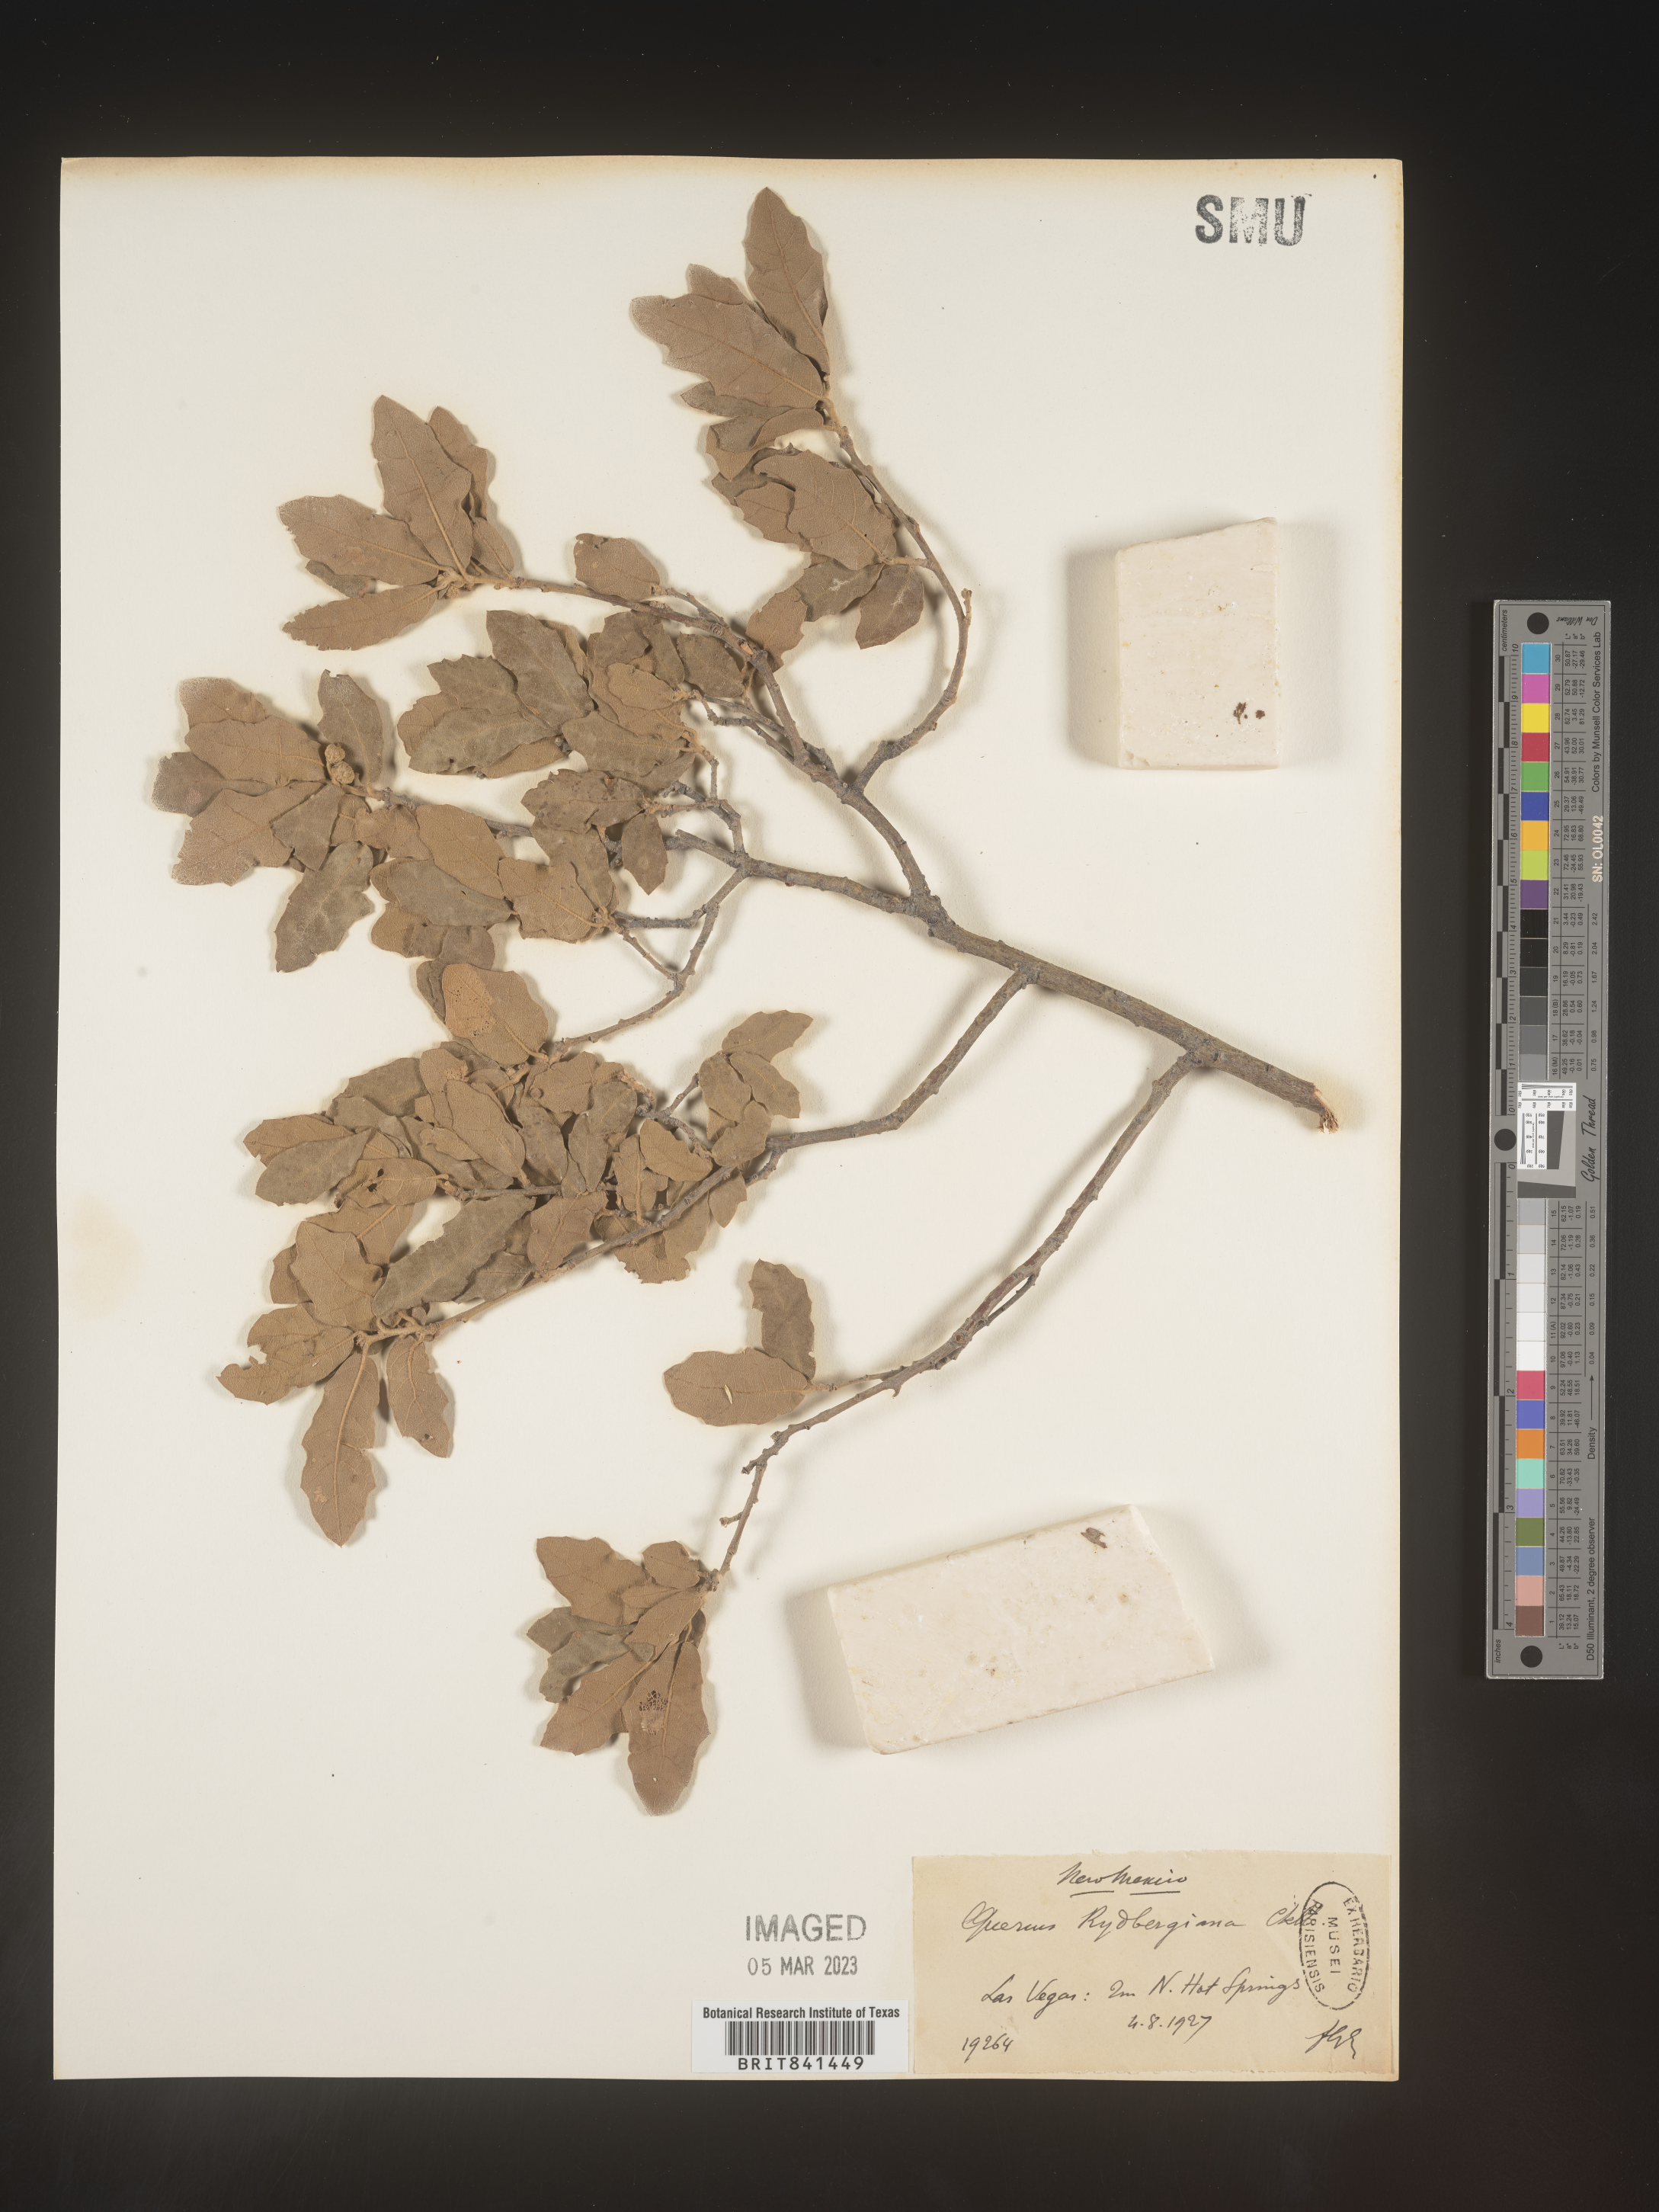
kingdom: Plantae
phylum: Tracheophyta
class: Magnoliopsida
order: Fagales
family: Fagaceae
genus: Quercus
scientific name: Quercus undulata
